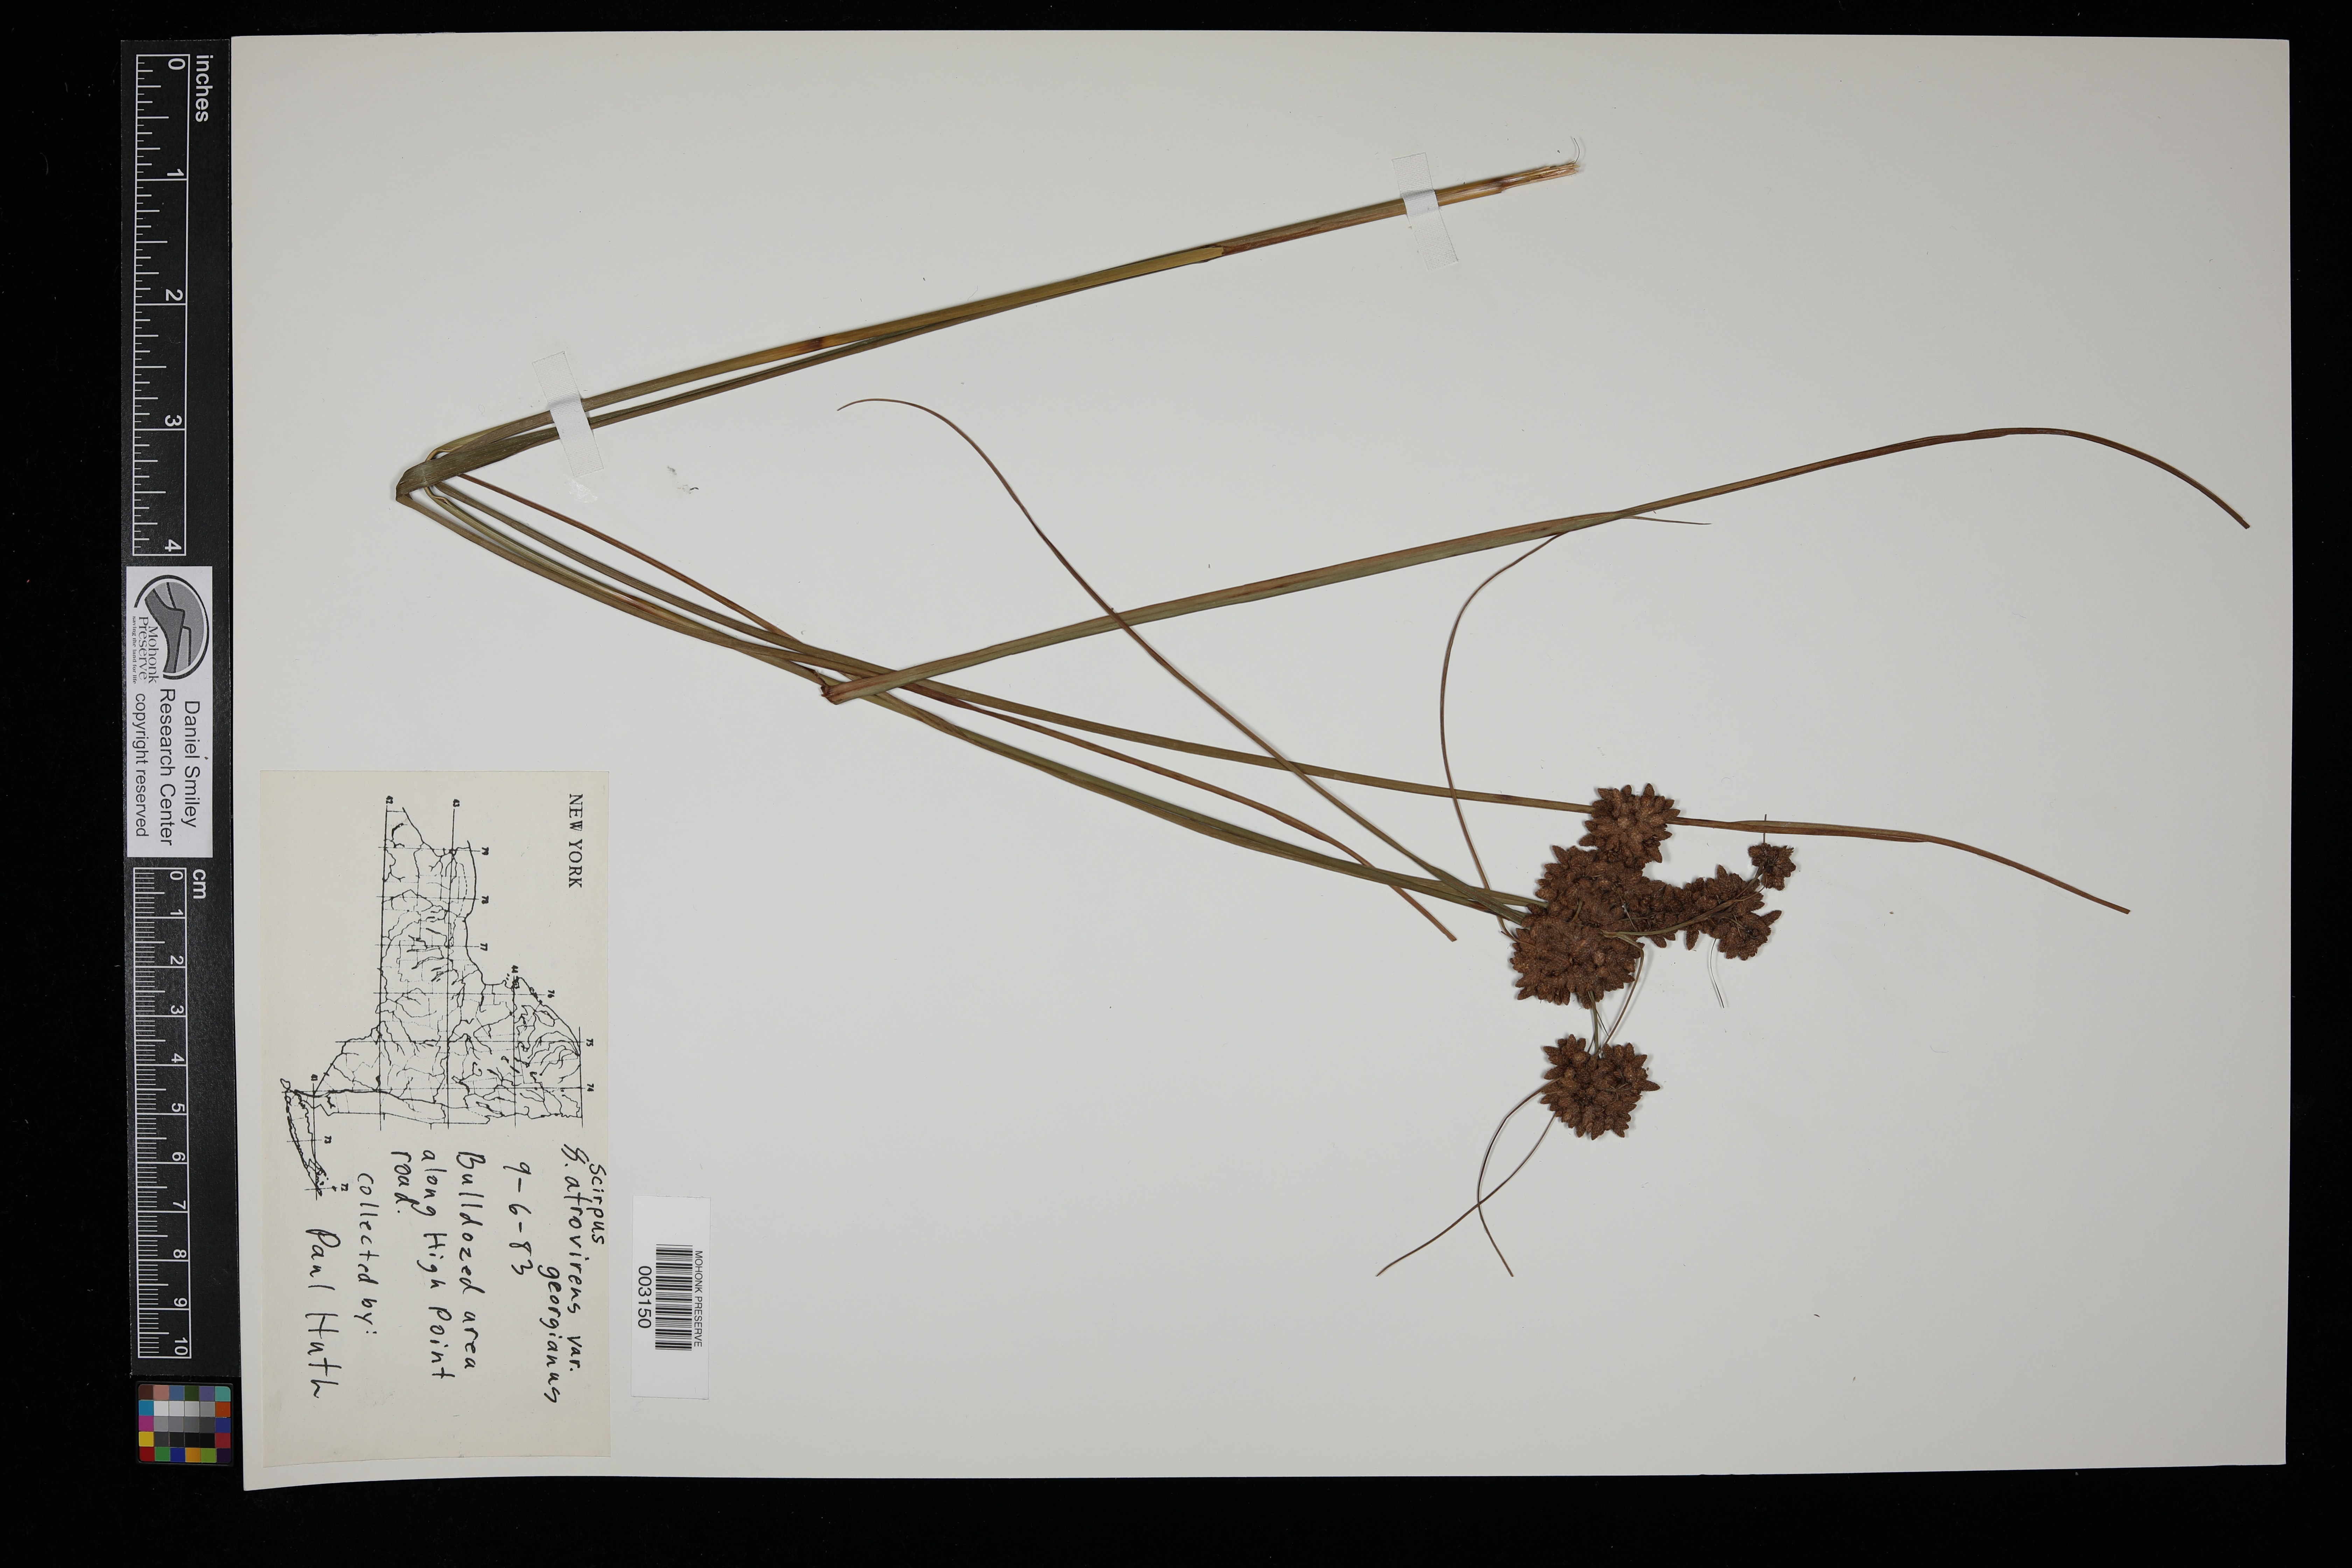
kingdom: Plantae
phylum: Tracheophyta
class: Liliopsida
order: Poales
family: Cyperaceae
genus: Scirpus
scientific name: Scirpus georgianus
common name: Bristleless dark-green bulrush
